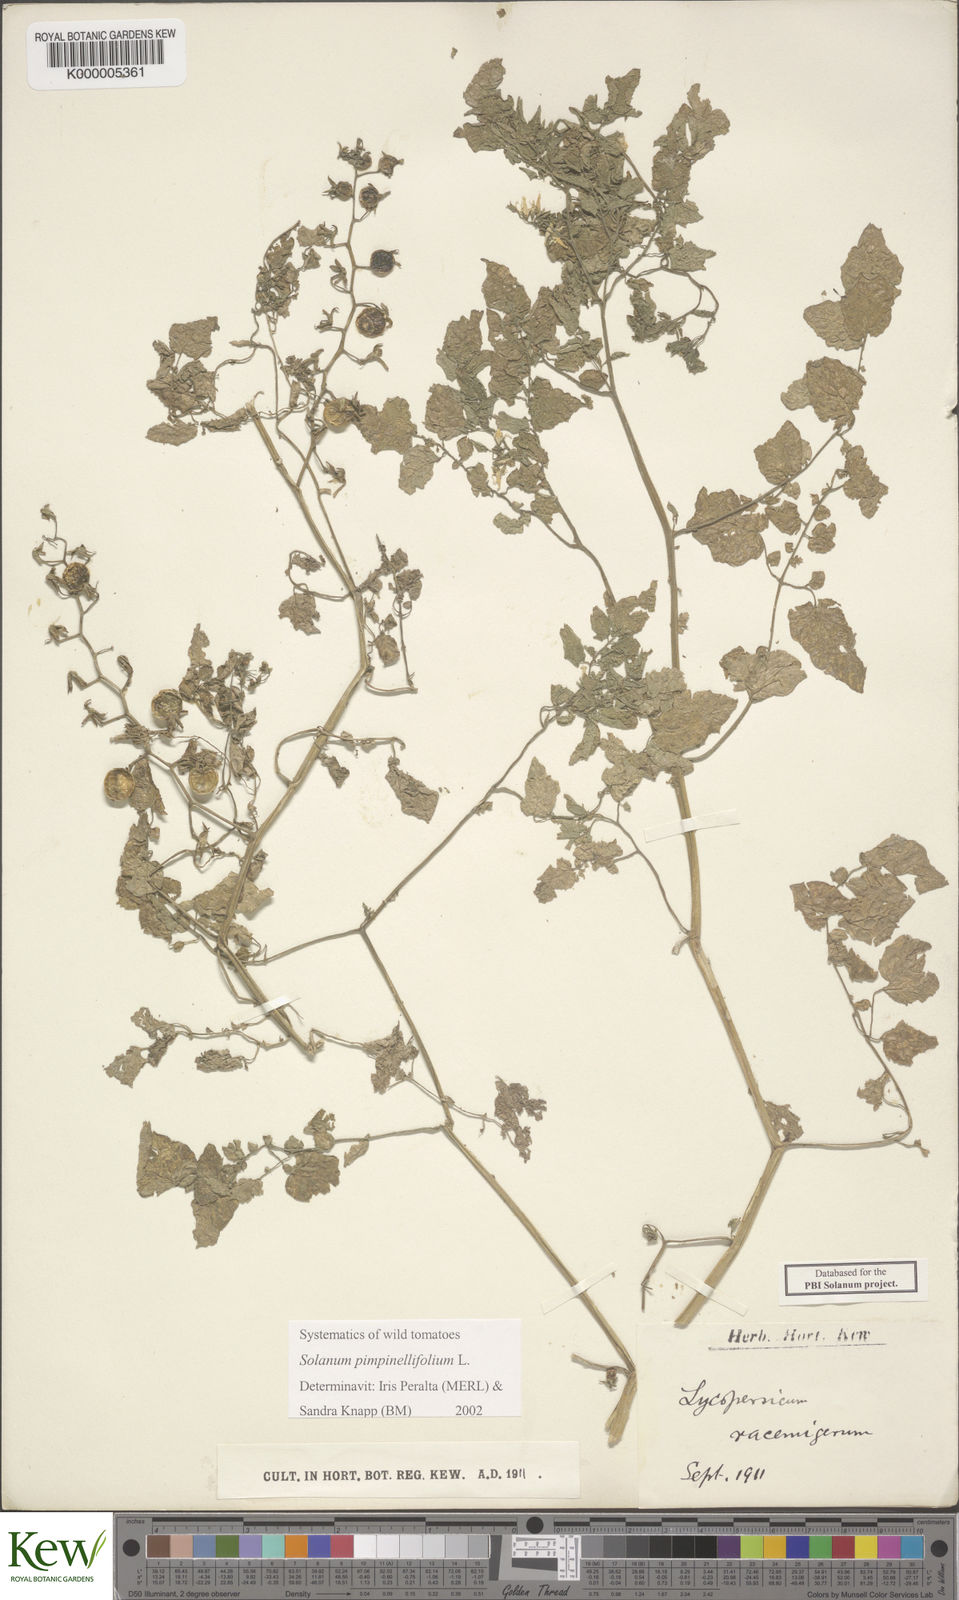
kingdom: Plantae
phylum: Tracheophyta
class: Magnoliopsida
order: Solanales
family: Solanaceae
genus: Solanum
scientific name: Solanum pimpinellifolium
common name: Currant-tomato
